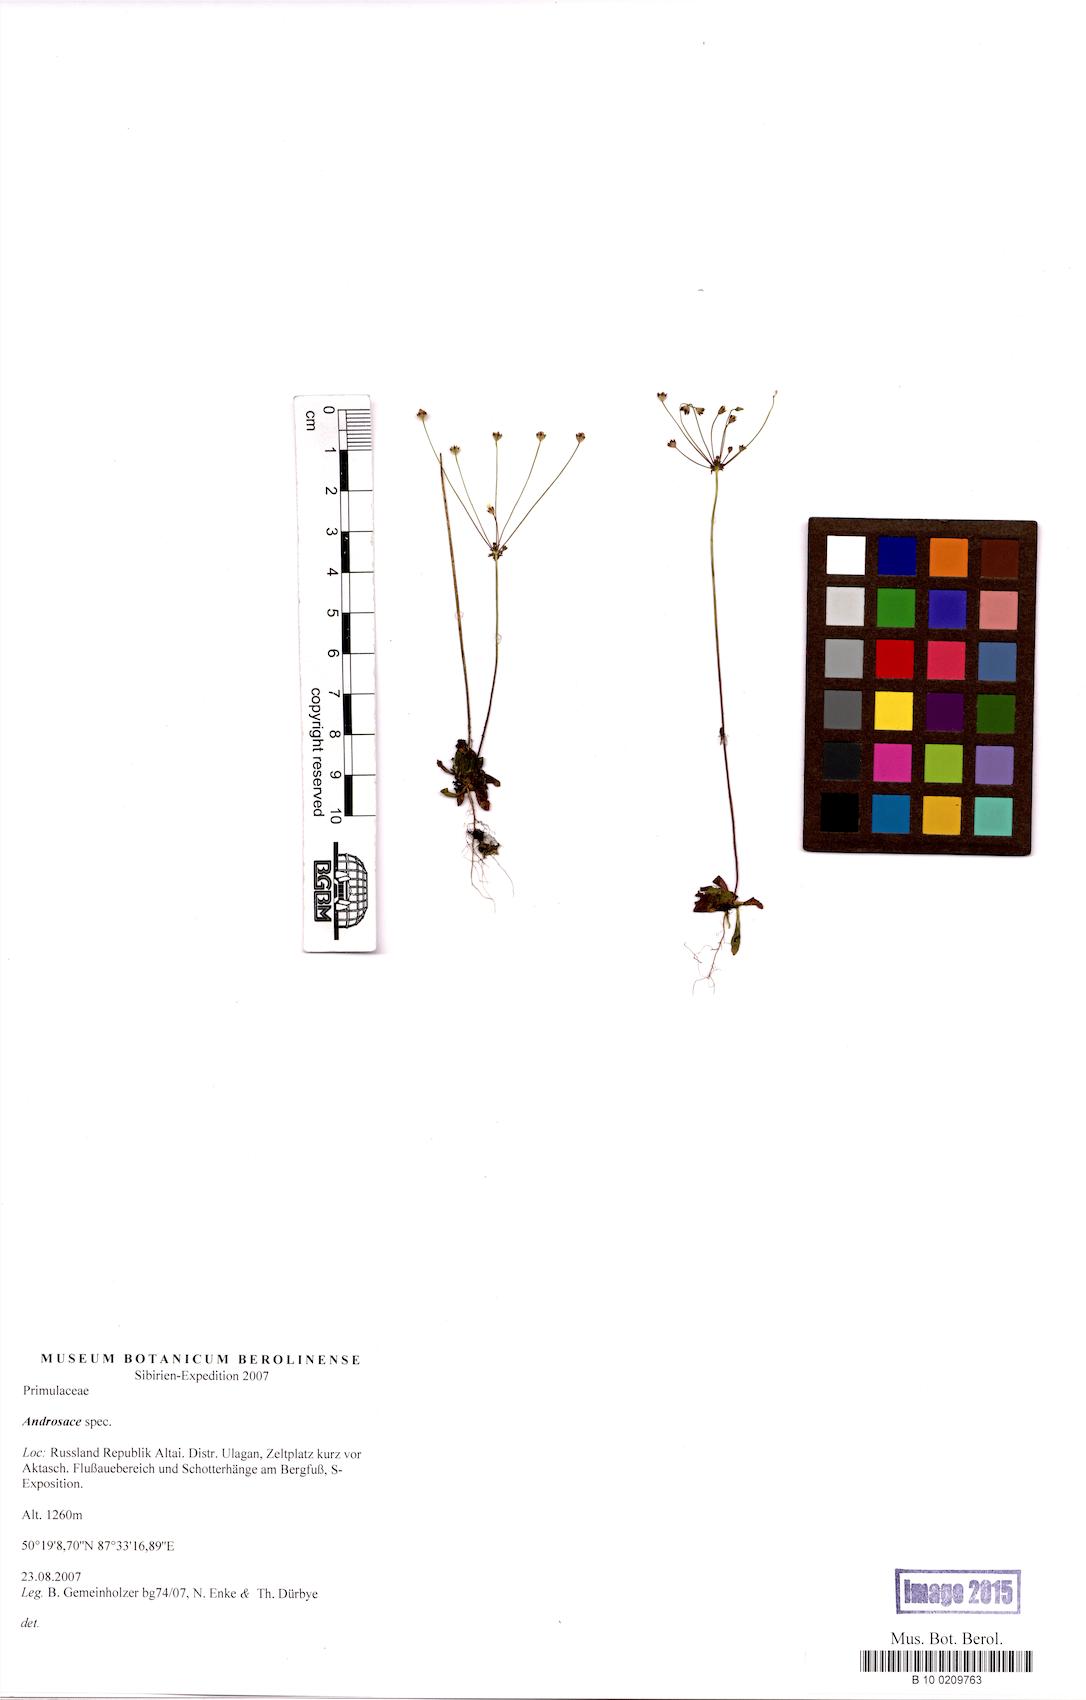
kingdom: Plantae
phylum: Tracheophyta
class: Magnoliopsida
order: Ericales
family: Primulaceae
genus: Androsace
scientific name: Androsace
